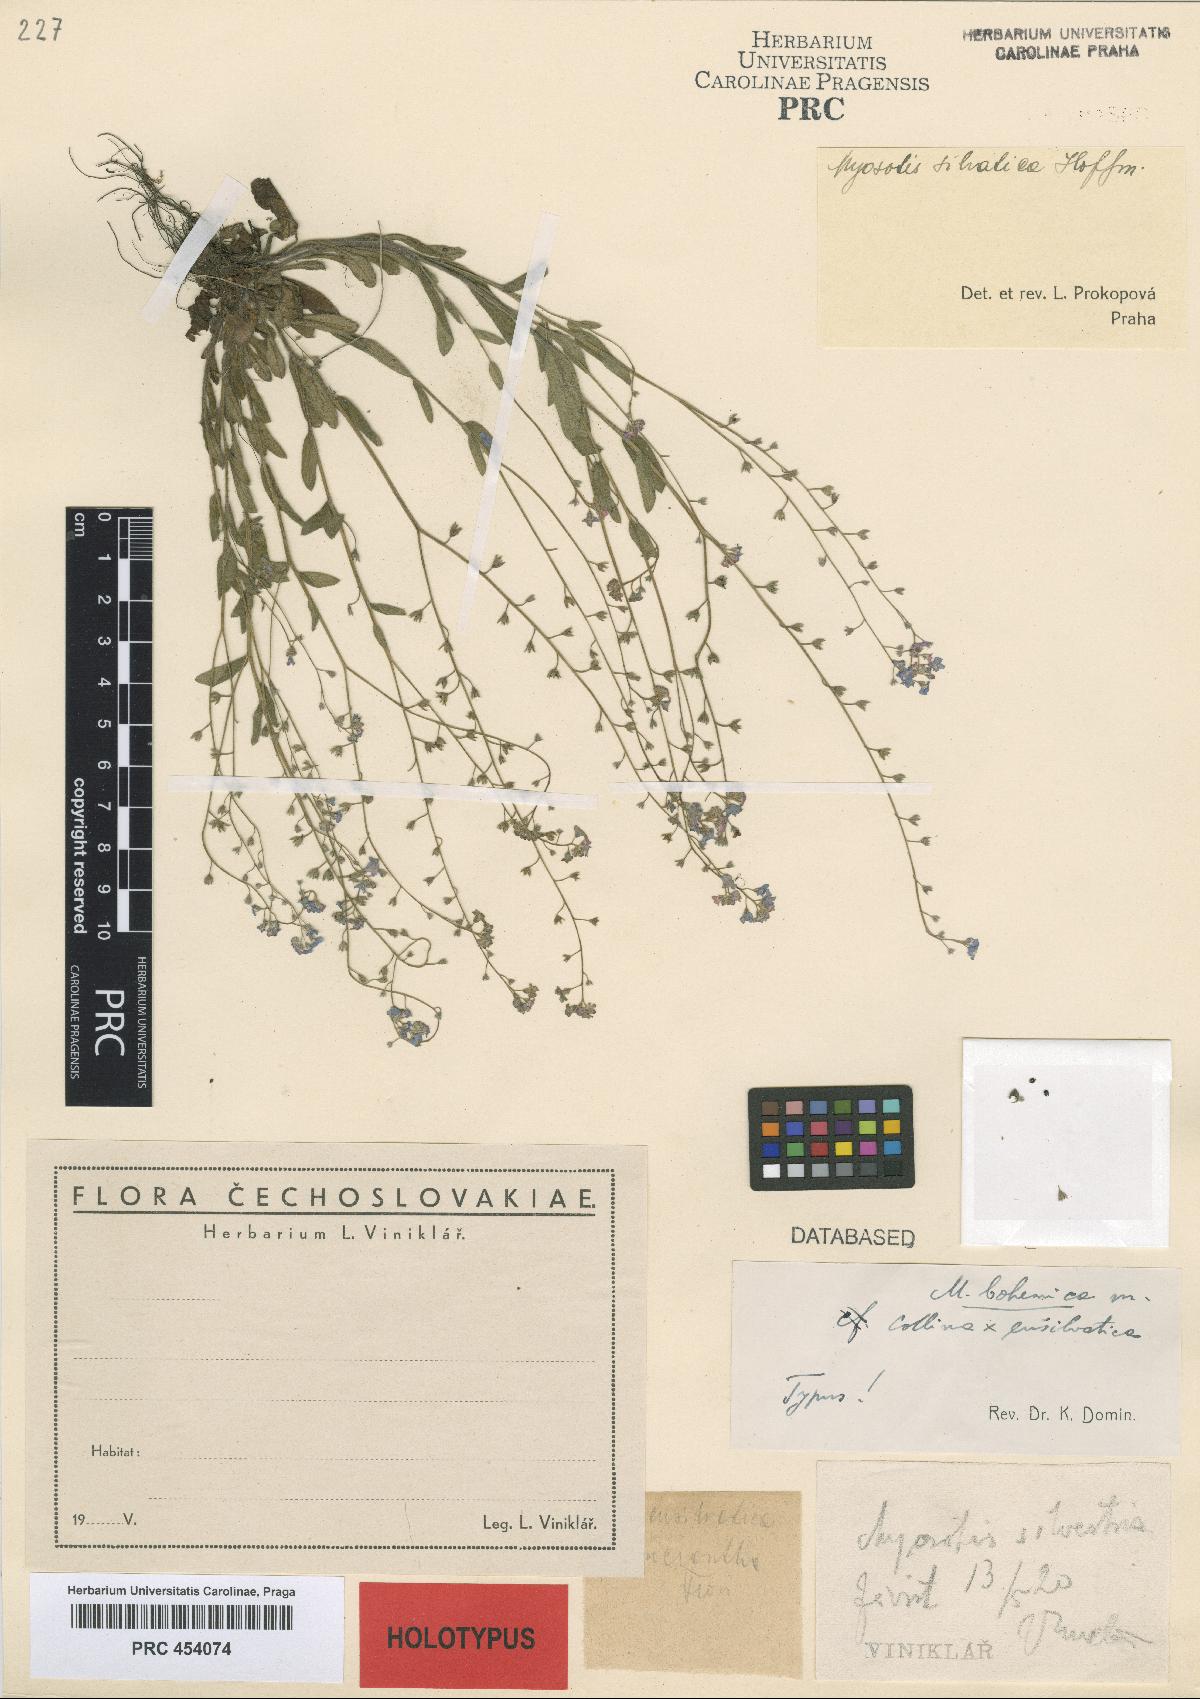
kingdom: Plantae
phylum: Tracheophyta
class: Magnoliopsida
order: Boraginales
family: Boraginaceae
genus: Myosotis
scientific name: Myosotis bohemica
